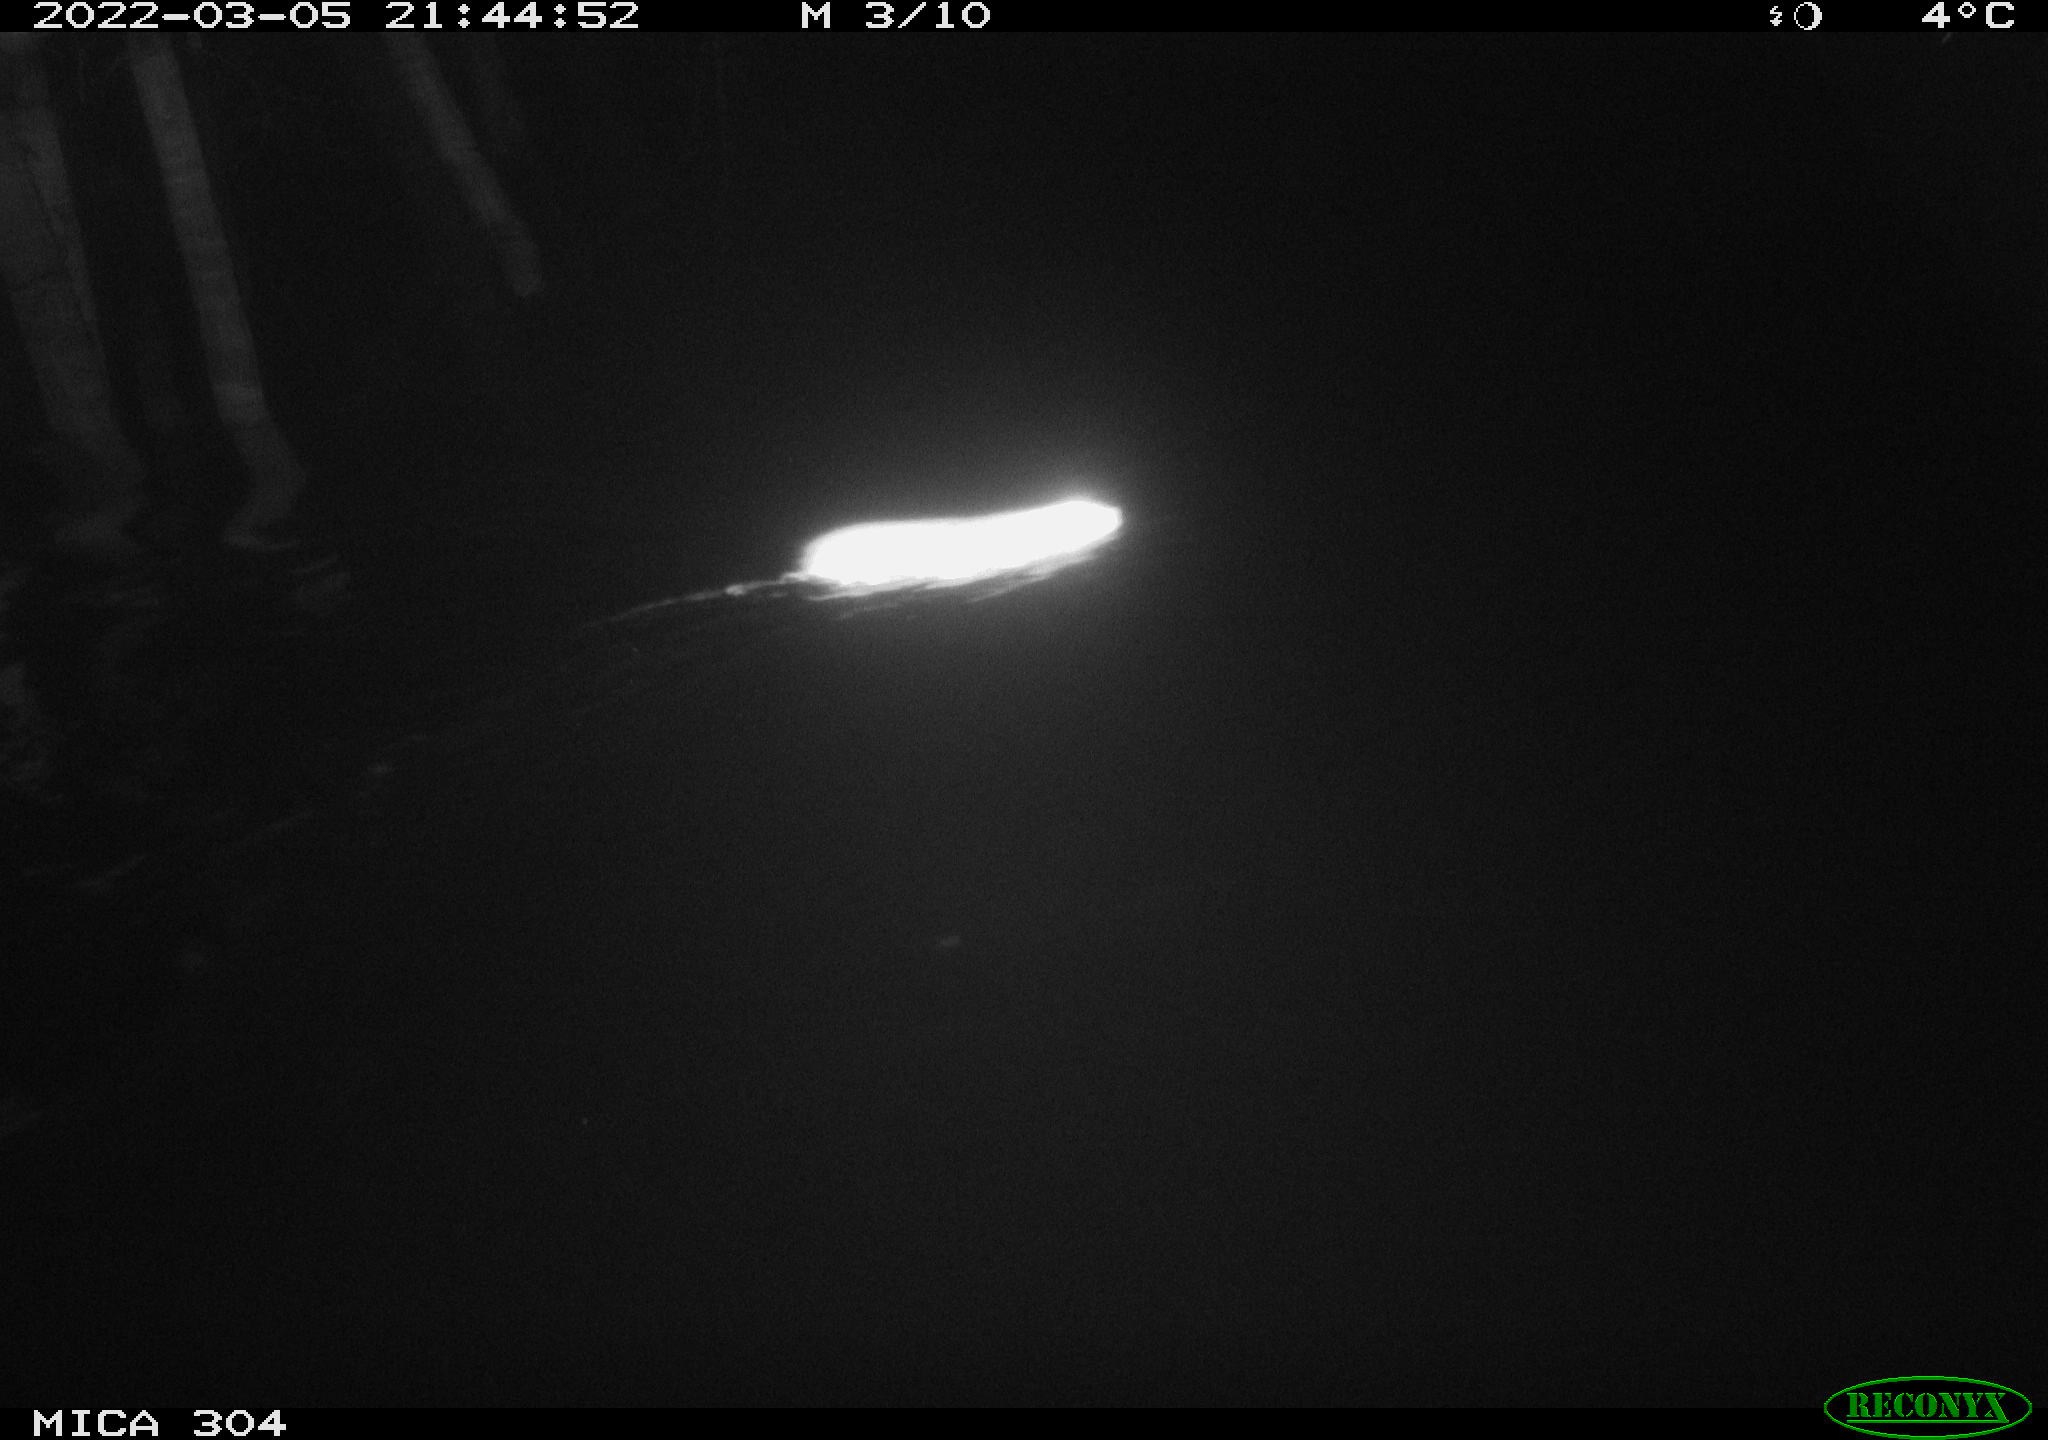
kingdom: Animalia
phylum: Chordata
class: Mammalia
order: Rodentia
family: Muridae
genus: Rattus
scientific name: Rattus norvegicus
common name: Brown rat
